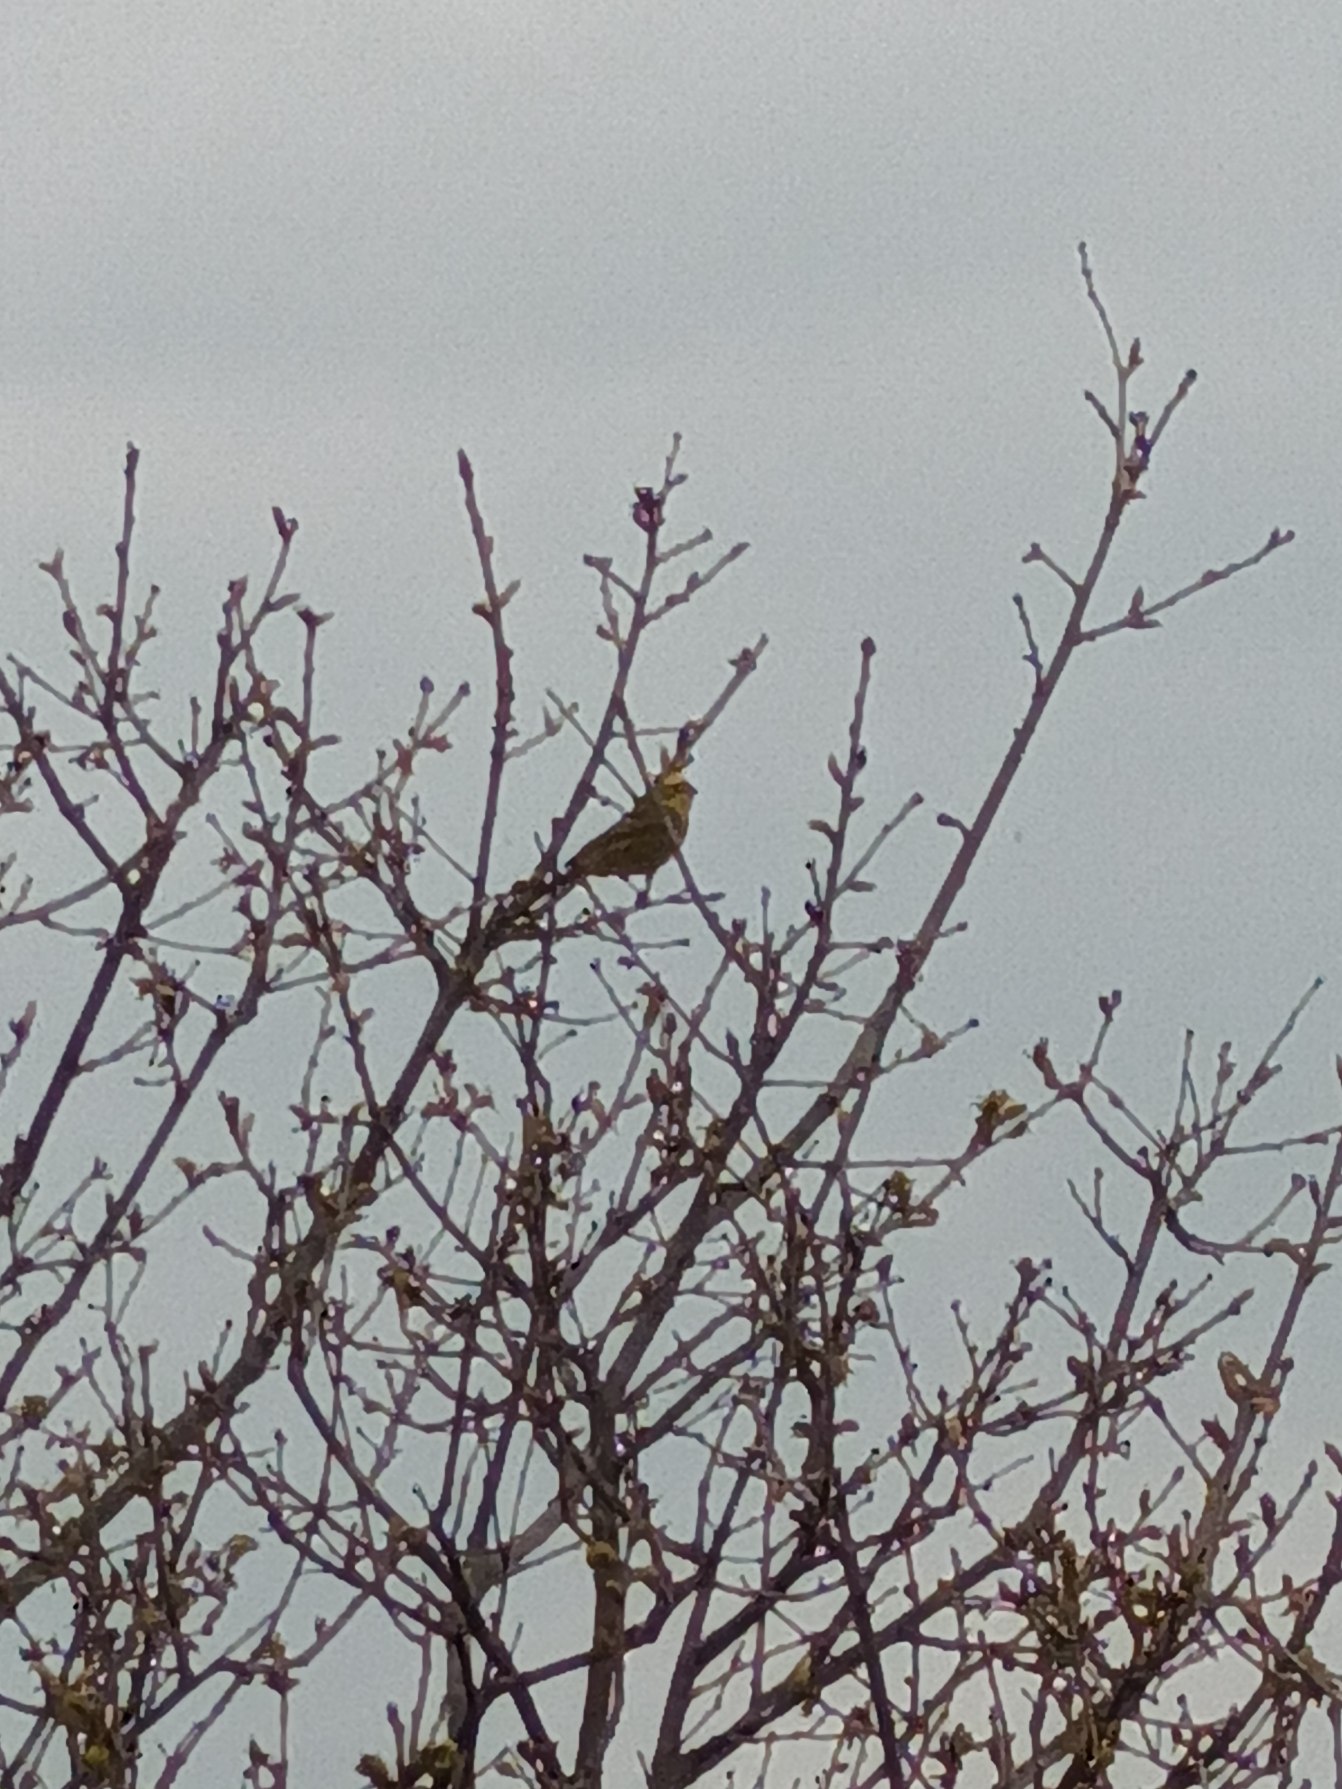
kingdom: Animalia
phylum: Chordata
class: Aves
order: Passeriformes
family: Emberizidae
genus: Emberiza
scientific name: Emberiza citrinella
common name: Gulspurv
